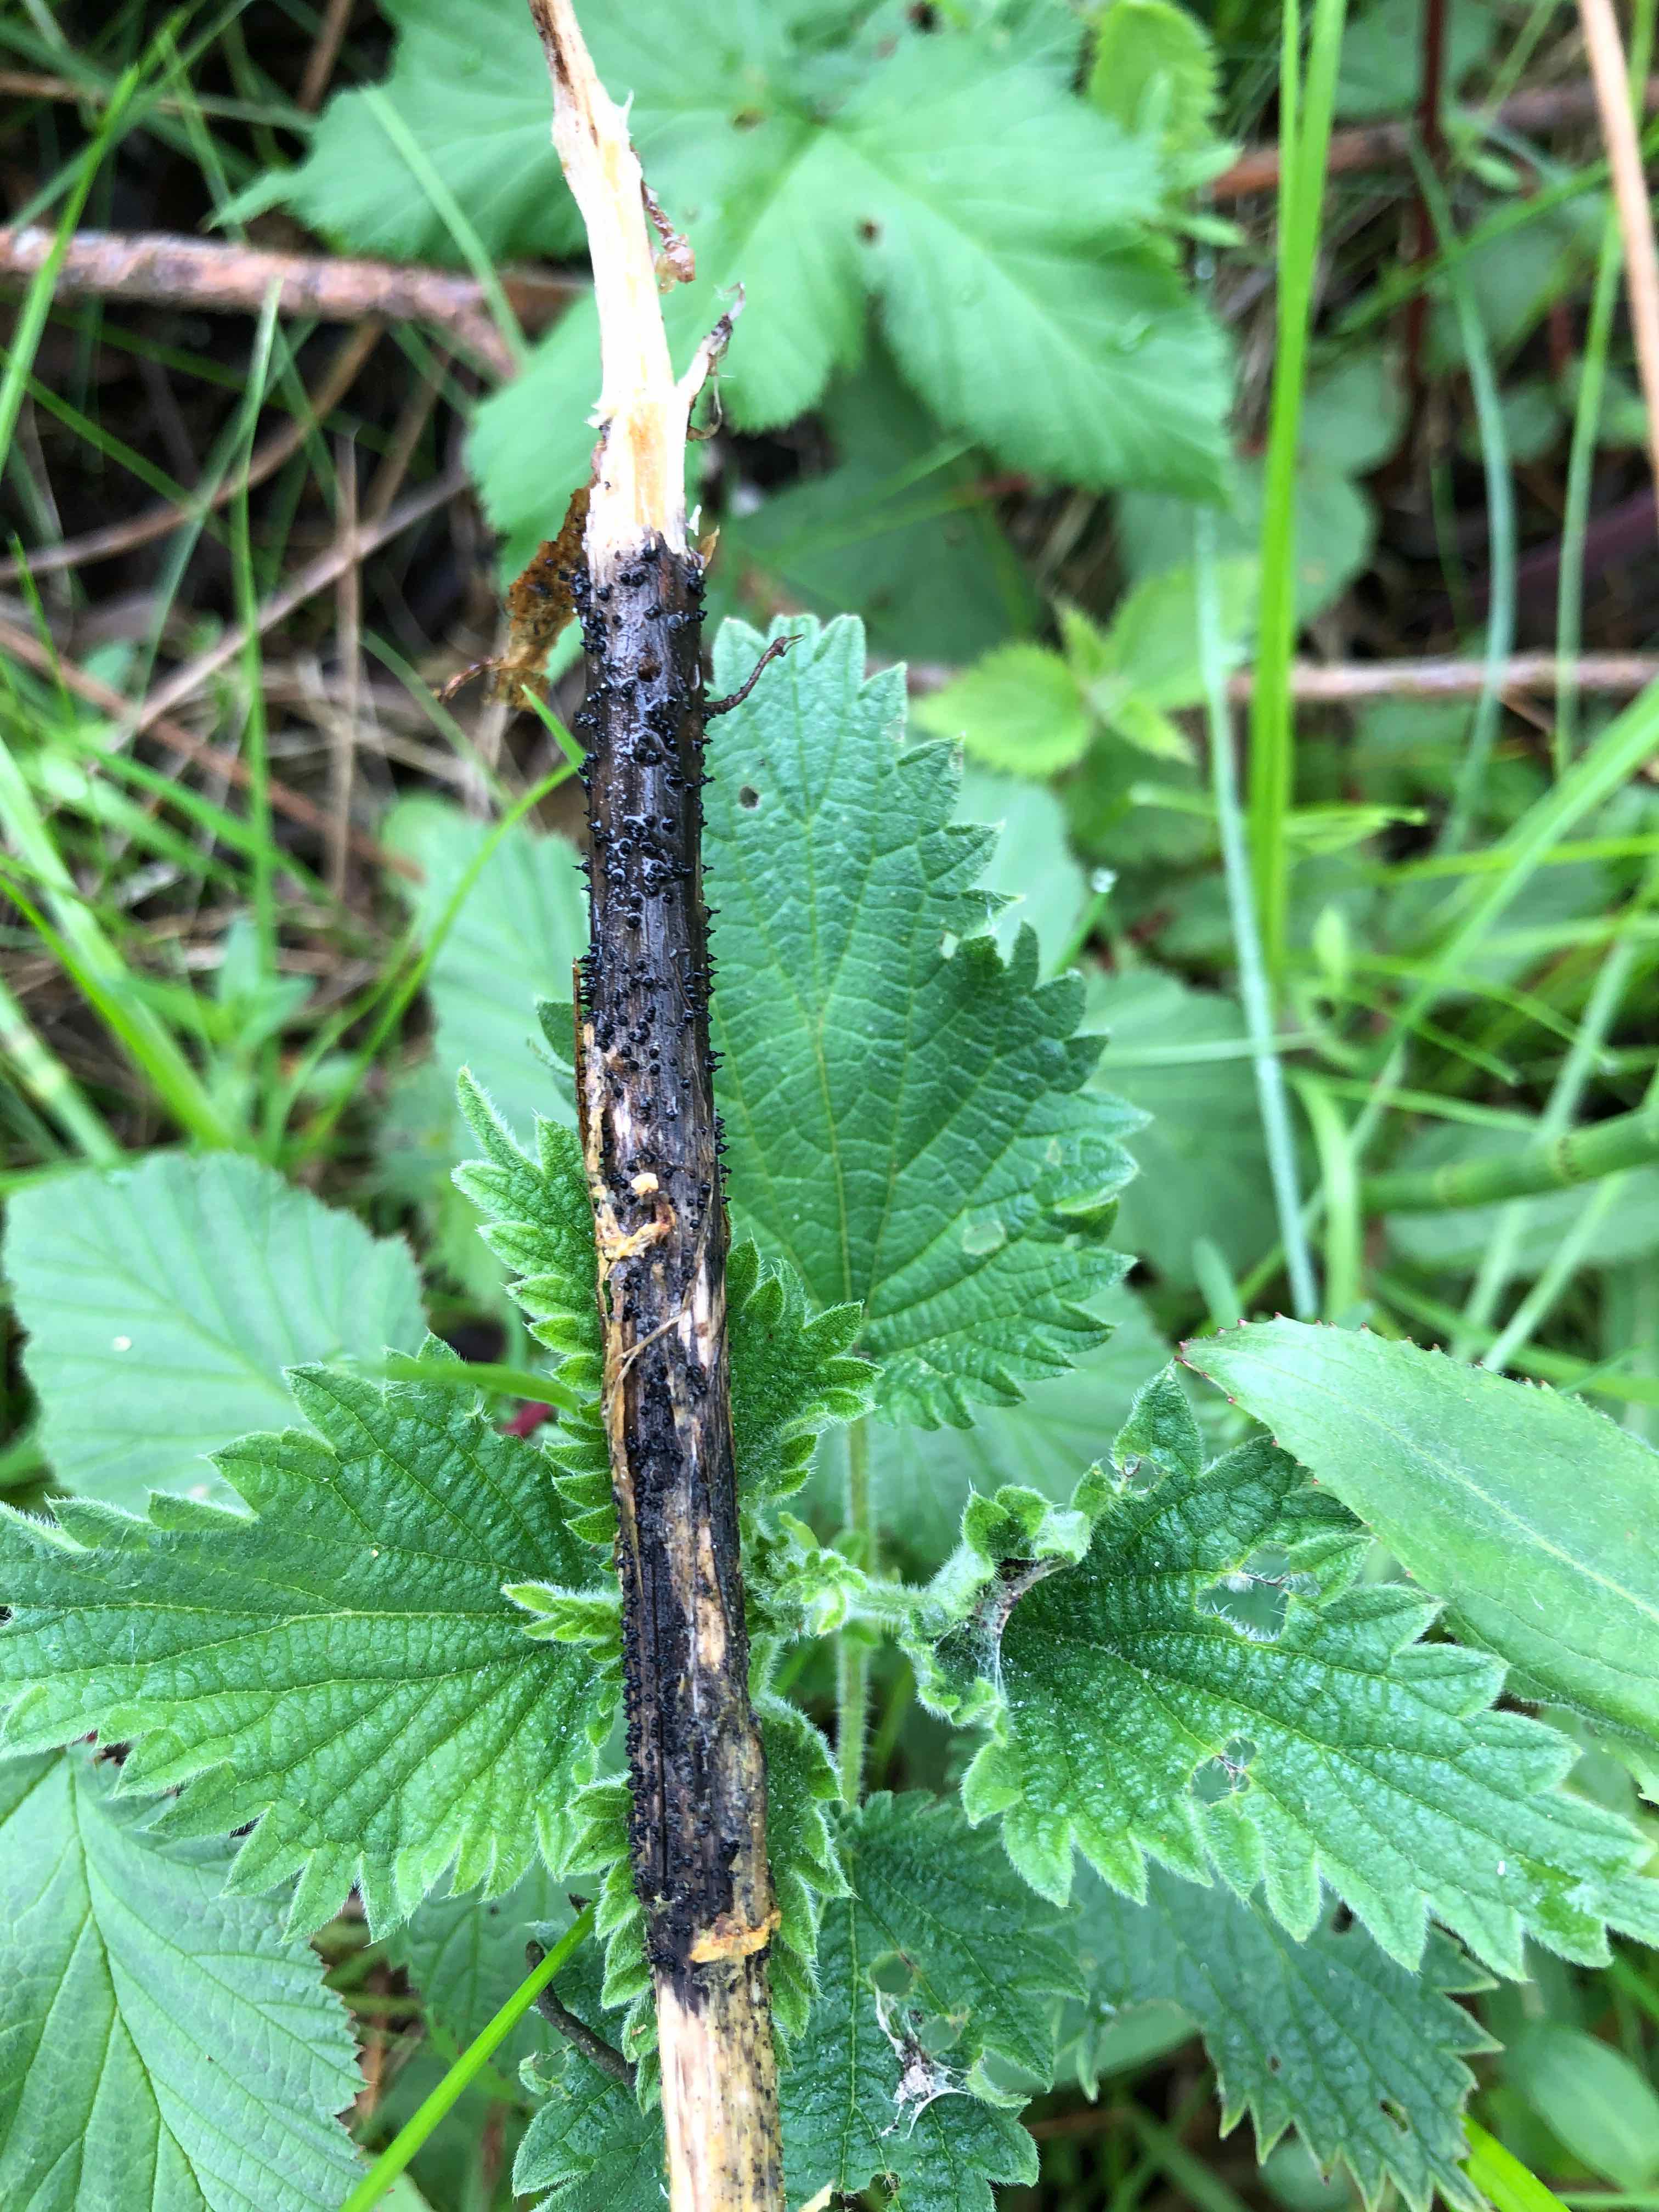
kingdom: Fungi
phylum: Ascomycota
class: Dothideomycetes
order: Pleosporales
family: Leptosphaeriaceae
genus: Leptosphaeria
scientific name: Leptosphaeria acuta
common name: spids kulkegle
